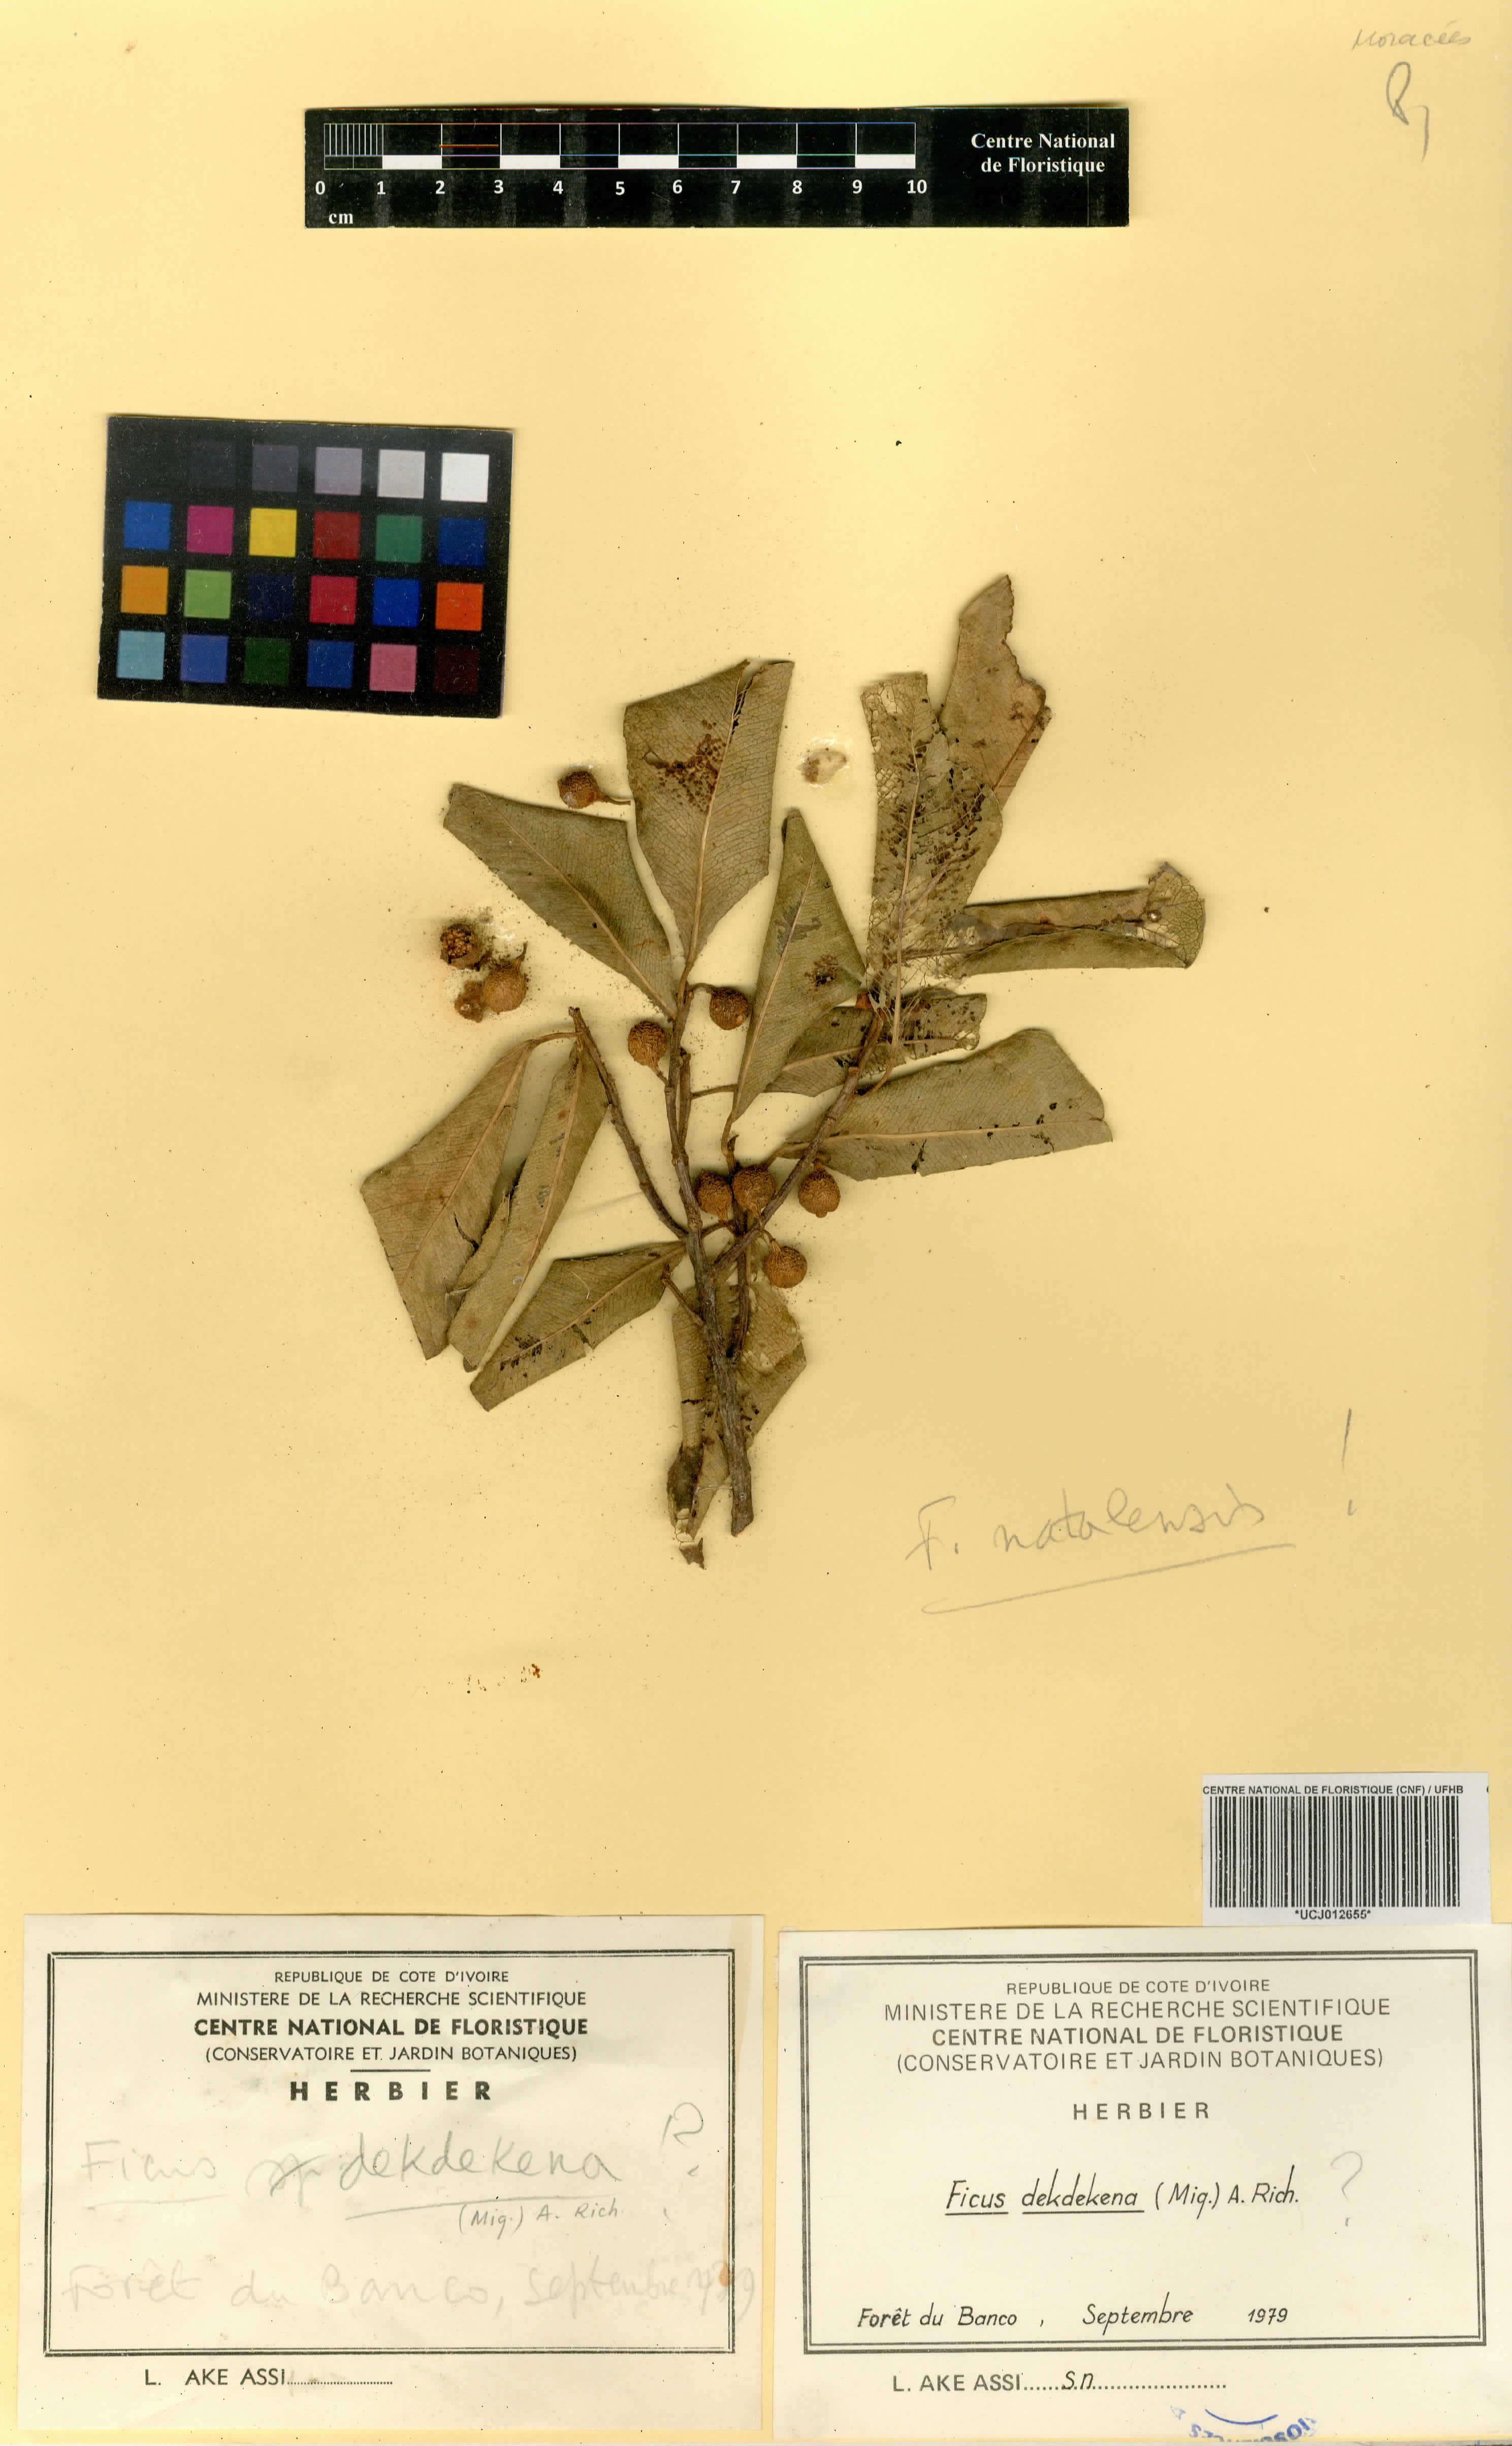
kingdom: Plantae
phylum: Tracheophyta
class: Magnoliopsida
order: Rosales
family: Moraceae
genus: Ficus
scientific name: Ficus thonningii
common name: Fig
